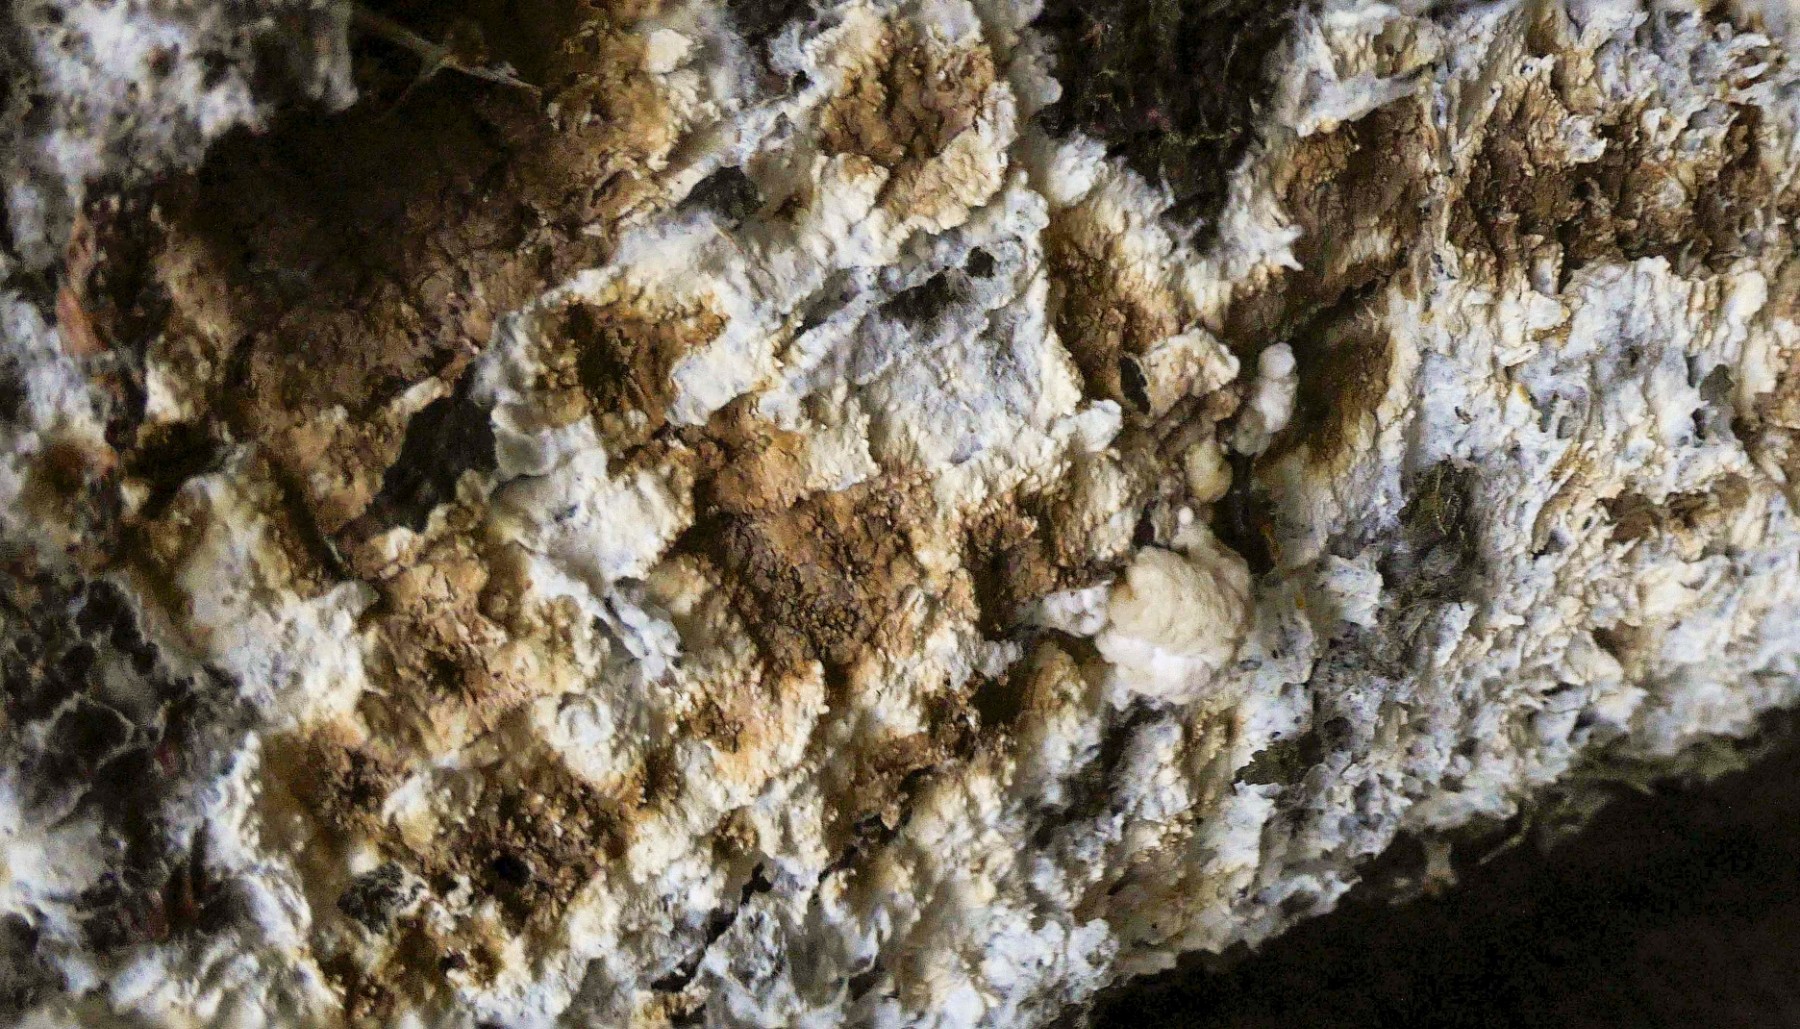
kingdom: Fungi
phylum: Basidiomycota
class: Agaricomycetes
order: Boletales
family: Coniophoraceae
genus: Coniophora
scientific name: Coniophora puteana
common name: gul tømmersvamp
